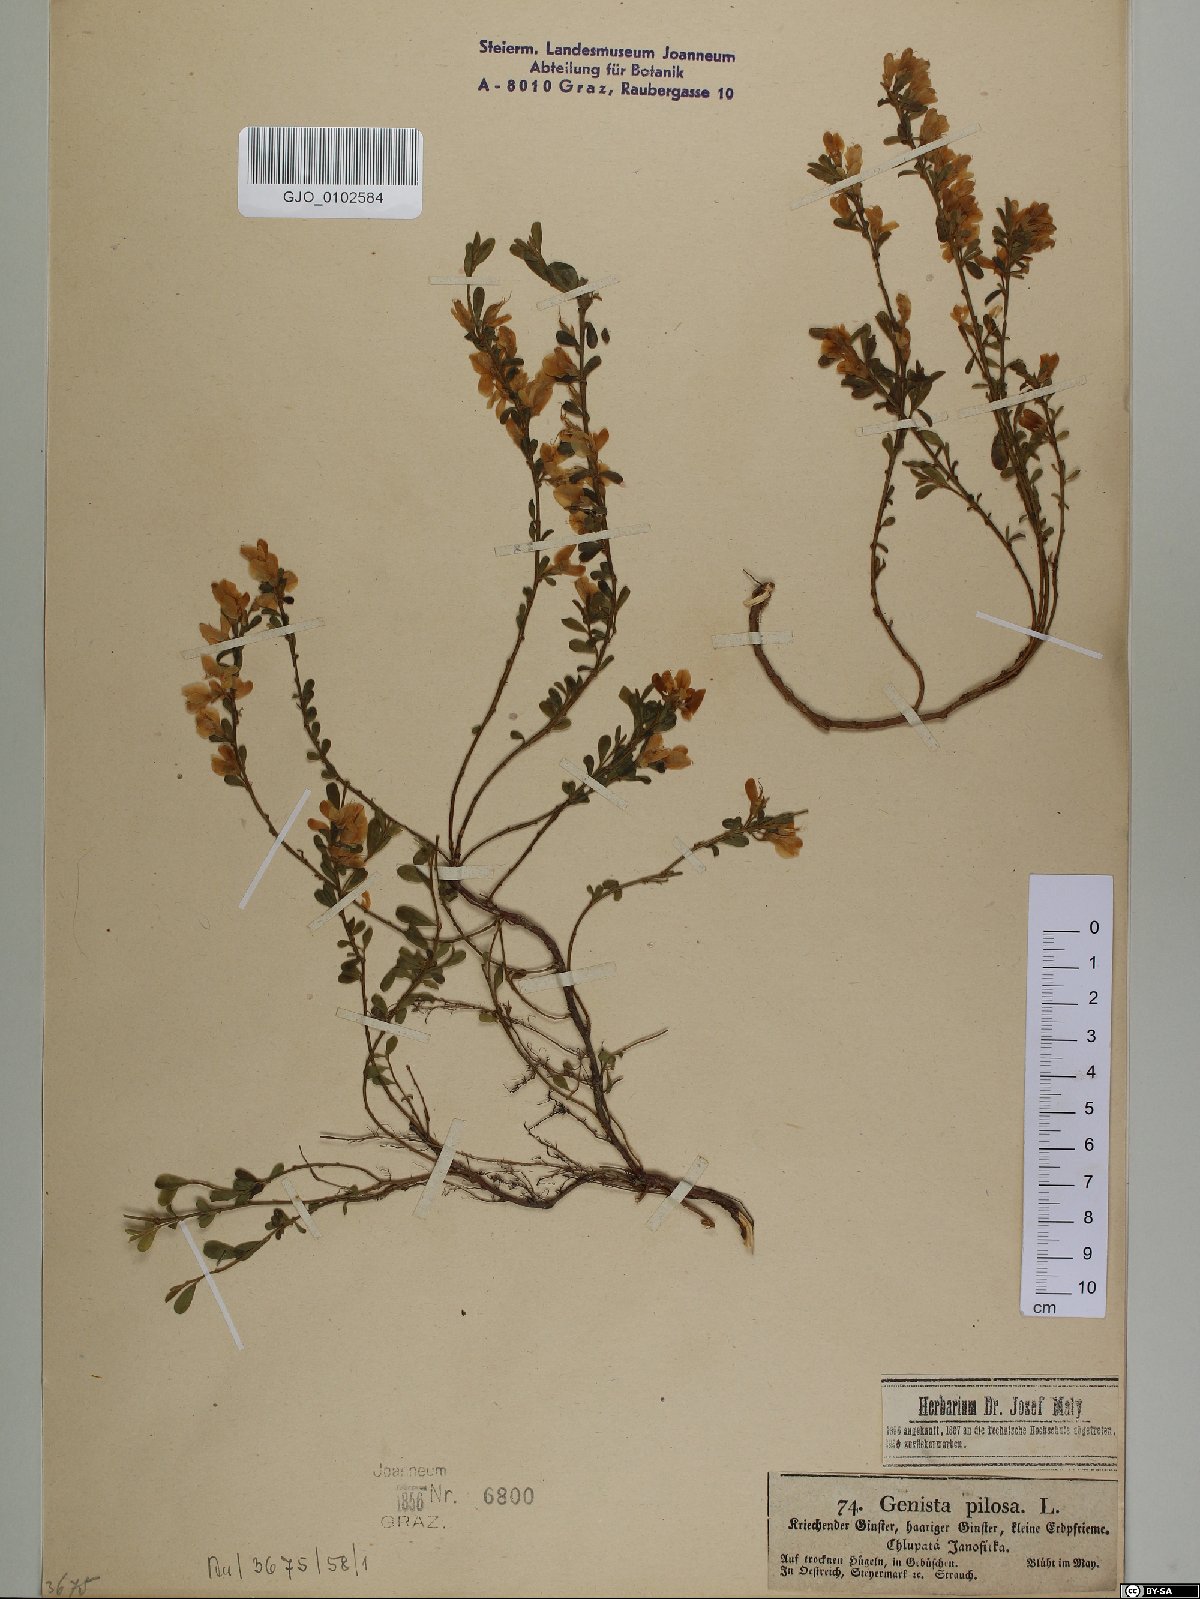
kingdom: Plantae
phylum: Tracheophyta
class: Magnoliopsida
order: Fabales
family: Fabaceae
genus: Genista
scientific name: Genista pilosa
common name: Hairy greenweed
